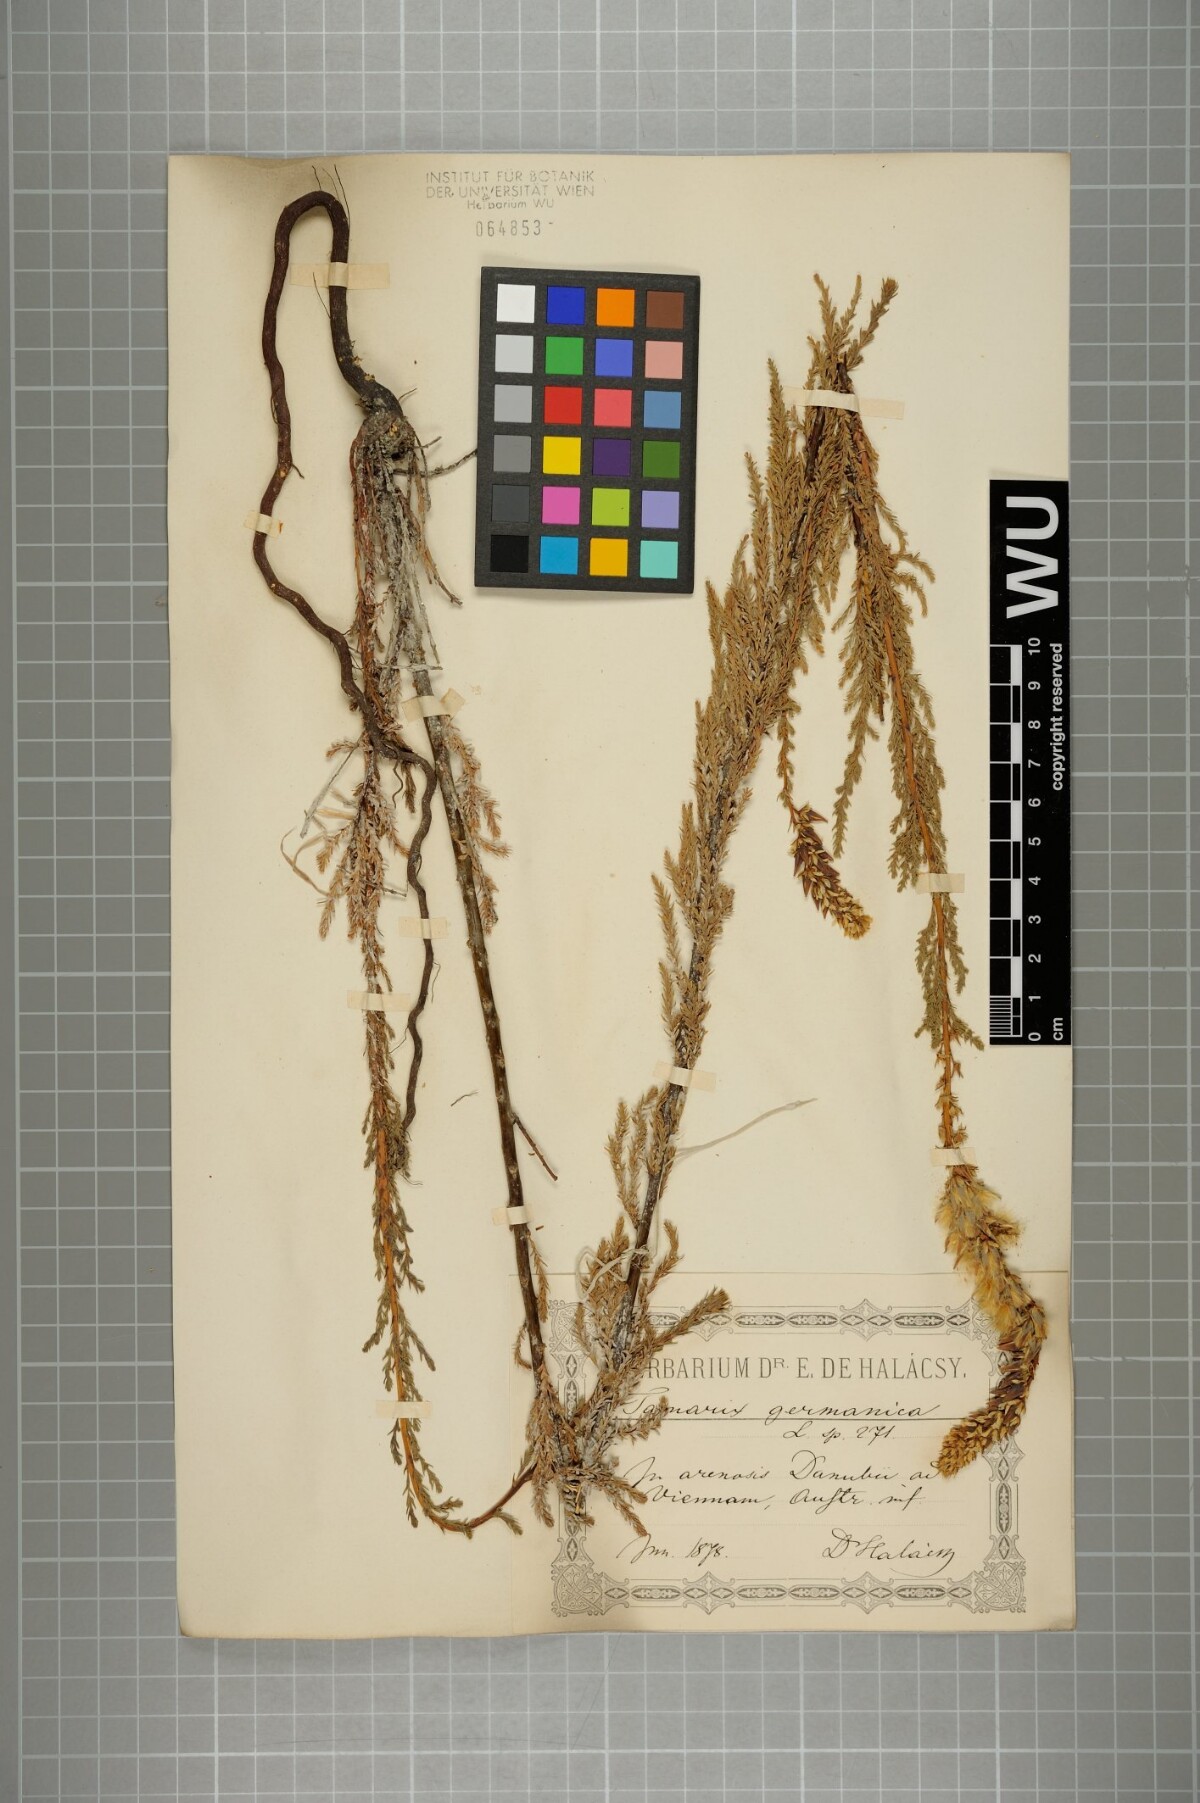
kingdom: Plantae
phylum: Tracheophyta
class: Magnoliopsida
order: Caryophyllales
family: Tamaricaceae
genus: Myricaria
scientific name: Myricaria germanica
